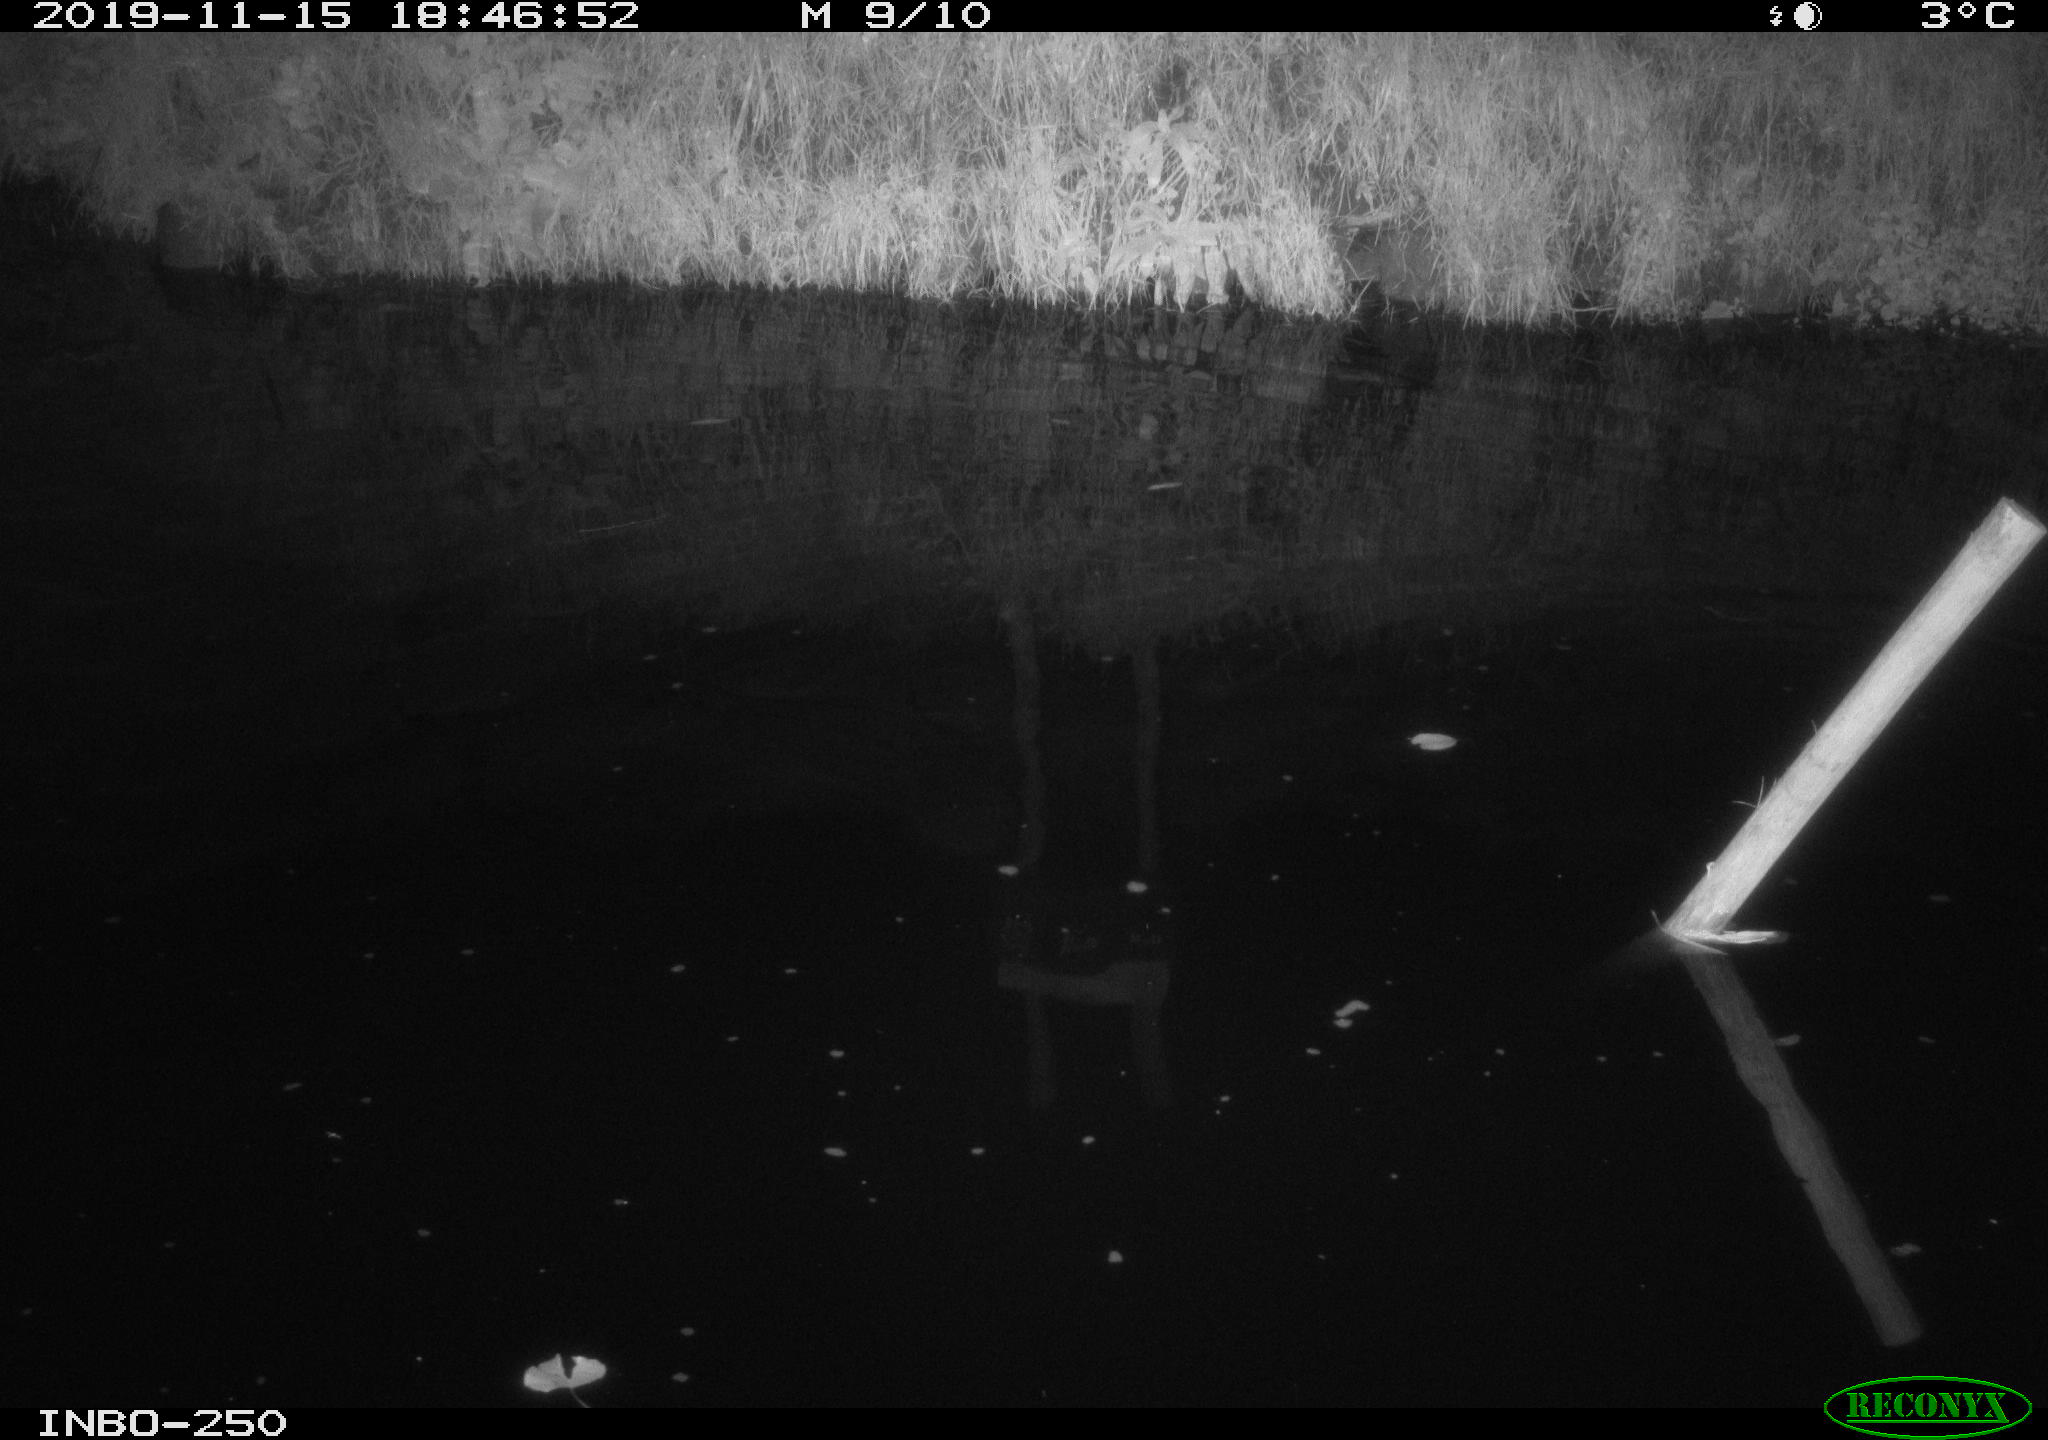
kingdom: Animalia
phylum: Chordata
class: Aves
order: Anseriformes
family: Anatidae
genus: Anas
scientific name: Anas platyrhynchos
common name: Mallard
